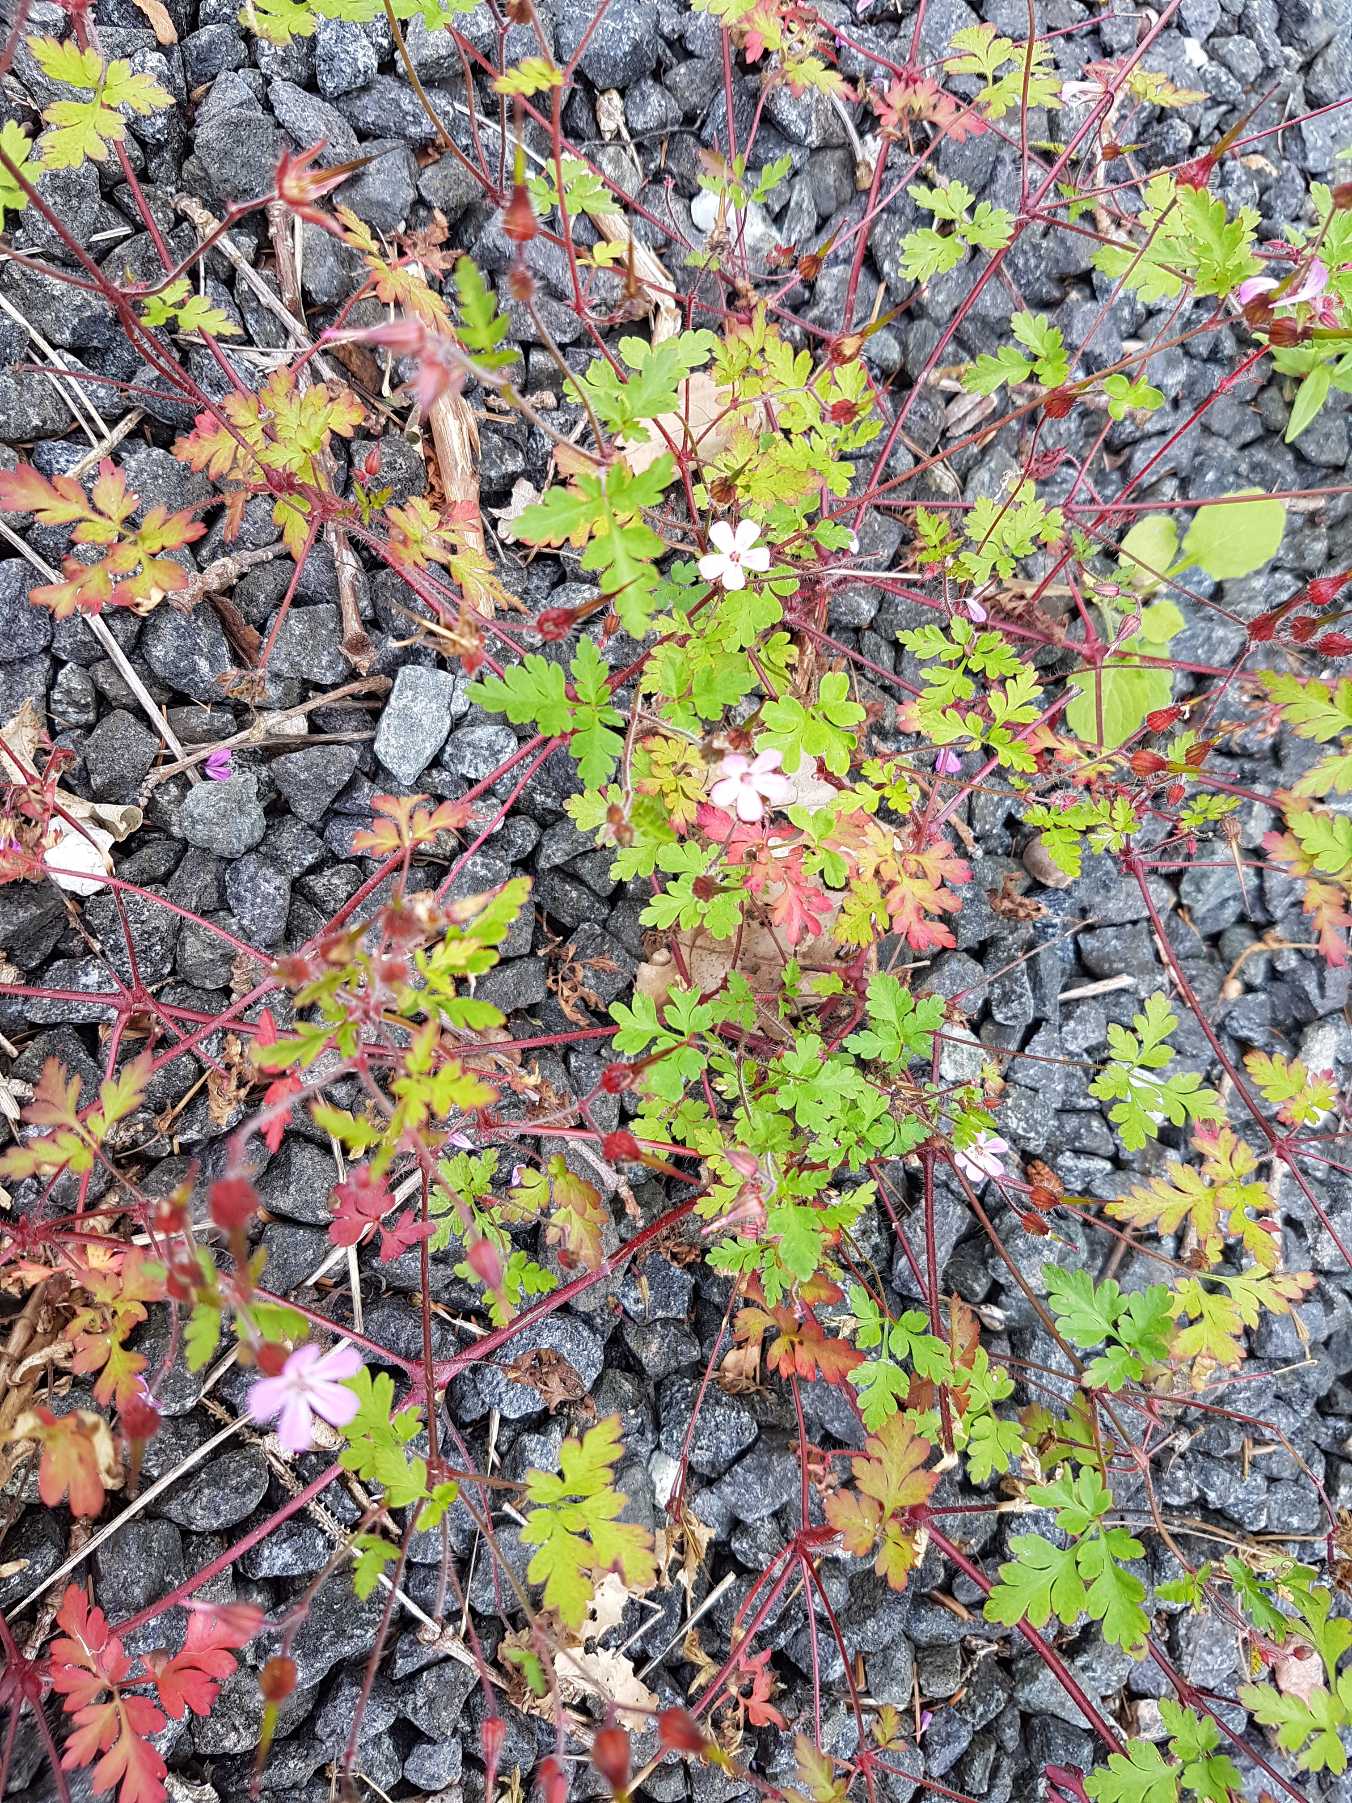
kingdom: Plantae
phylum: Tracheophyta
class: Magnoliopsida
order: Geraniales
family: Geraniaceae
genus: Geranium
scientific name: Geranium robertianum
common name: Stinkende storkenæb
